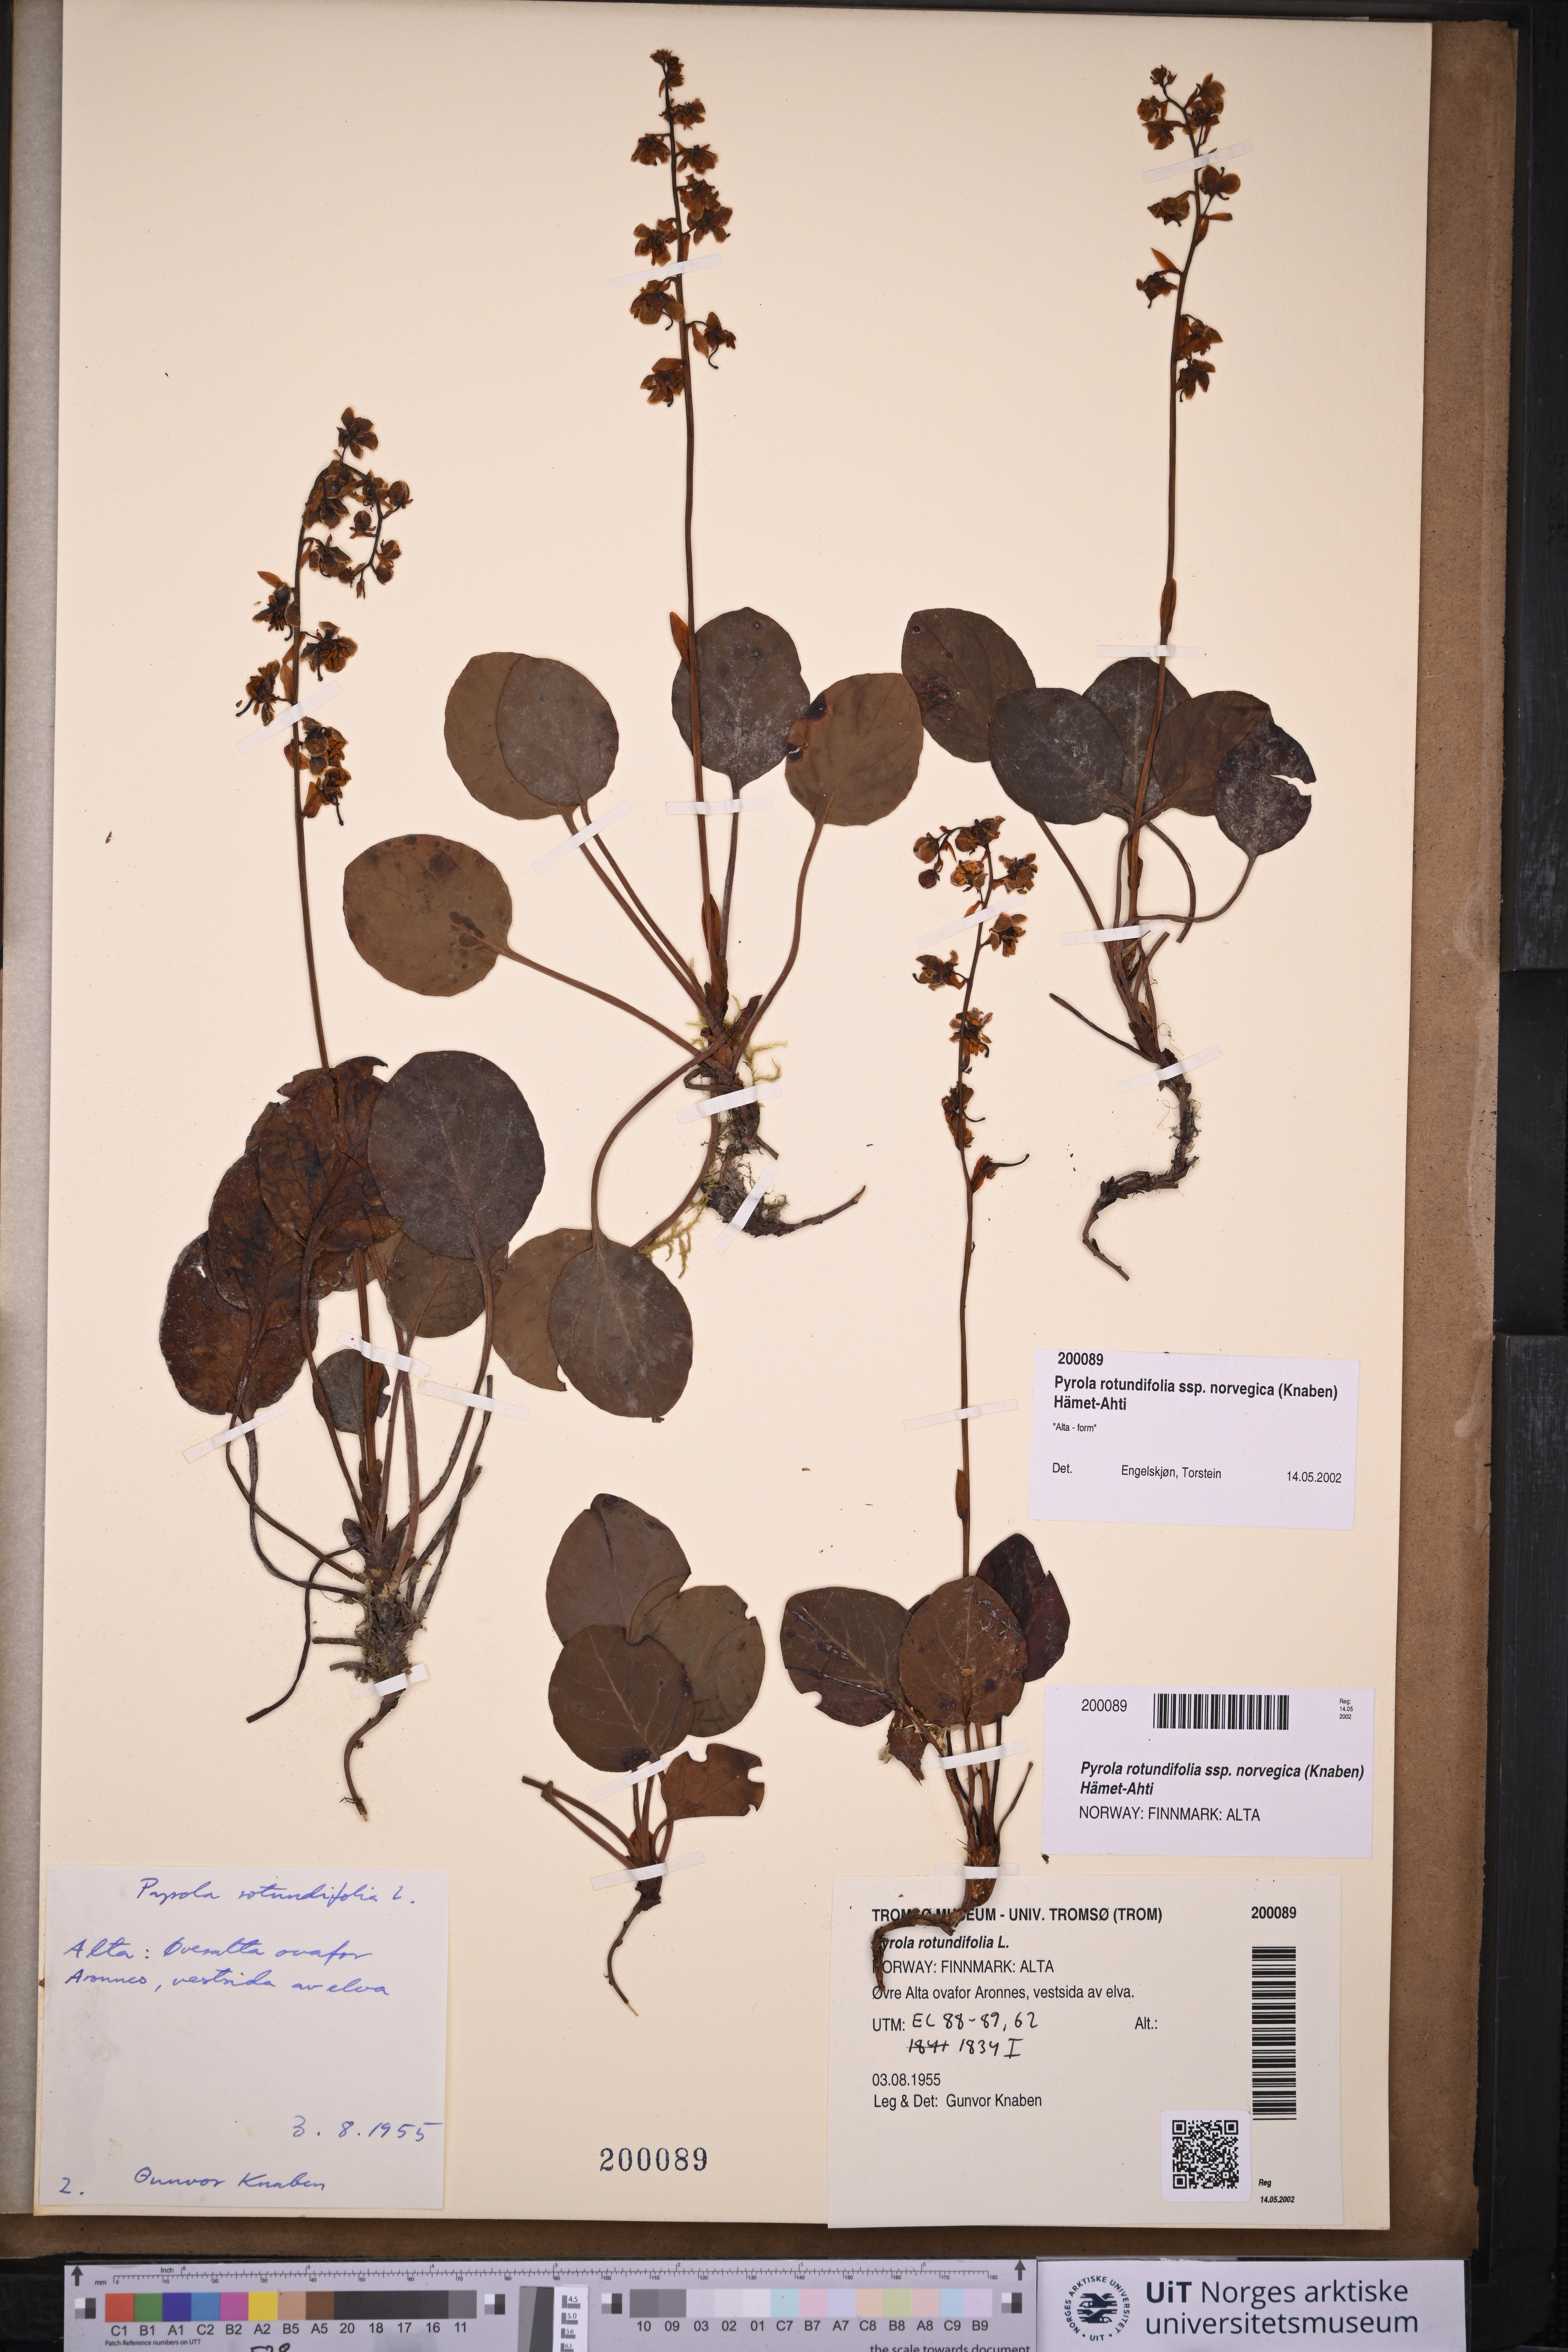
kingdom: Plantae
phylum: Tracheophyta
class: Magnoliopsida
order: Ericales
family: Ericaceae
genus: Pyrola
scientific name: Pyrola rotundifolia
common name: Round-leaved wintergreen
